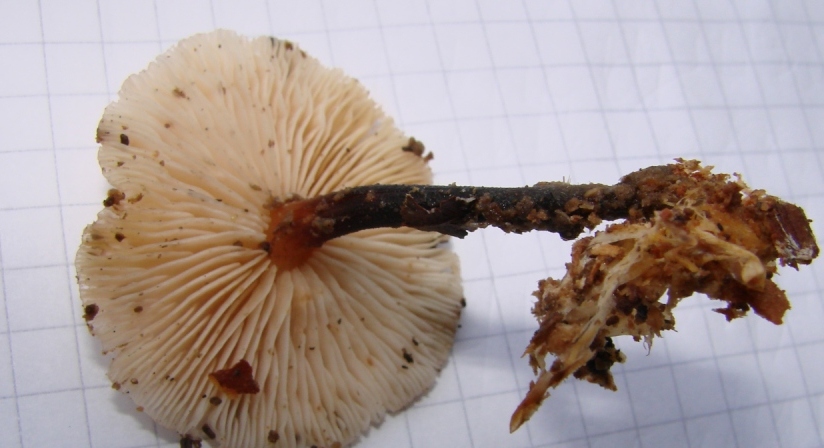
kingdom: Fungi
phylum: Basidiomycota
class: Agaricomycetes
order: Agaricales
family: Omphalotaceae
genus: Gymnopus
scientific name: Gymnopus brassicolens
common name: kål-fladhat
